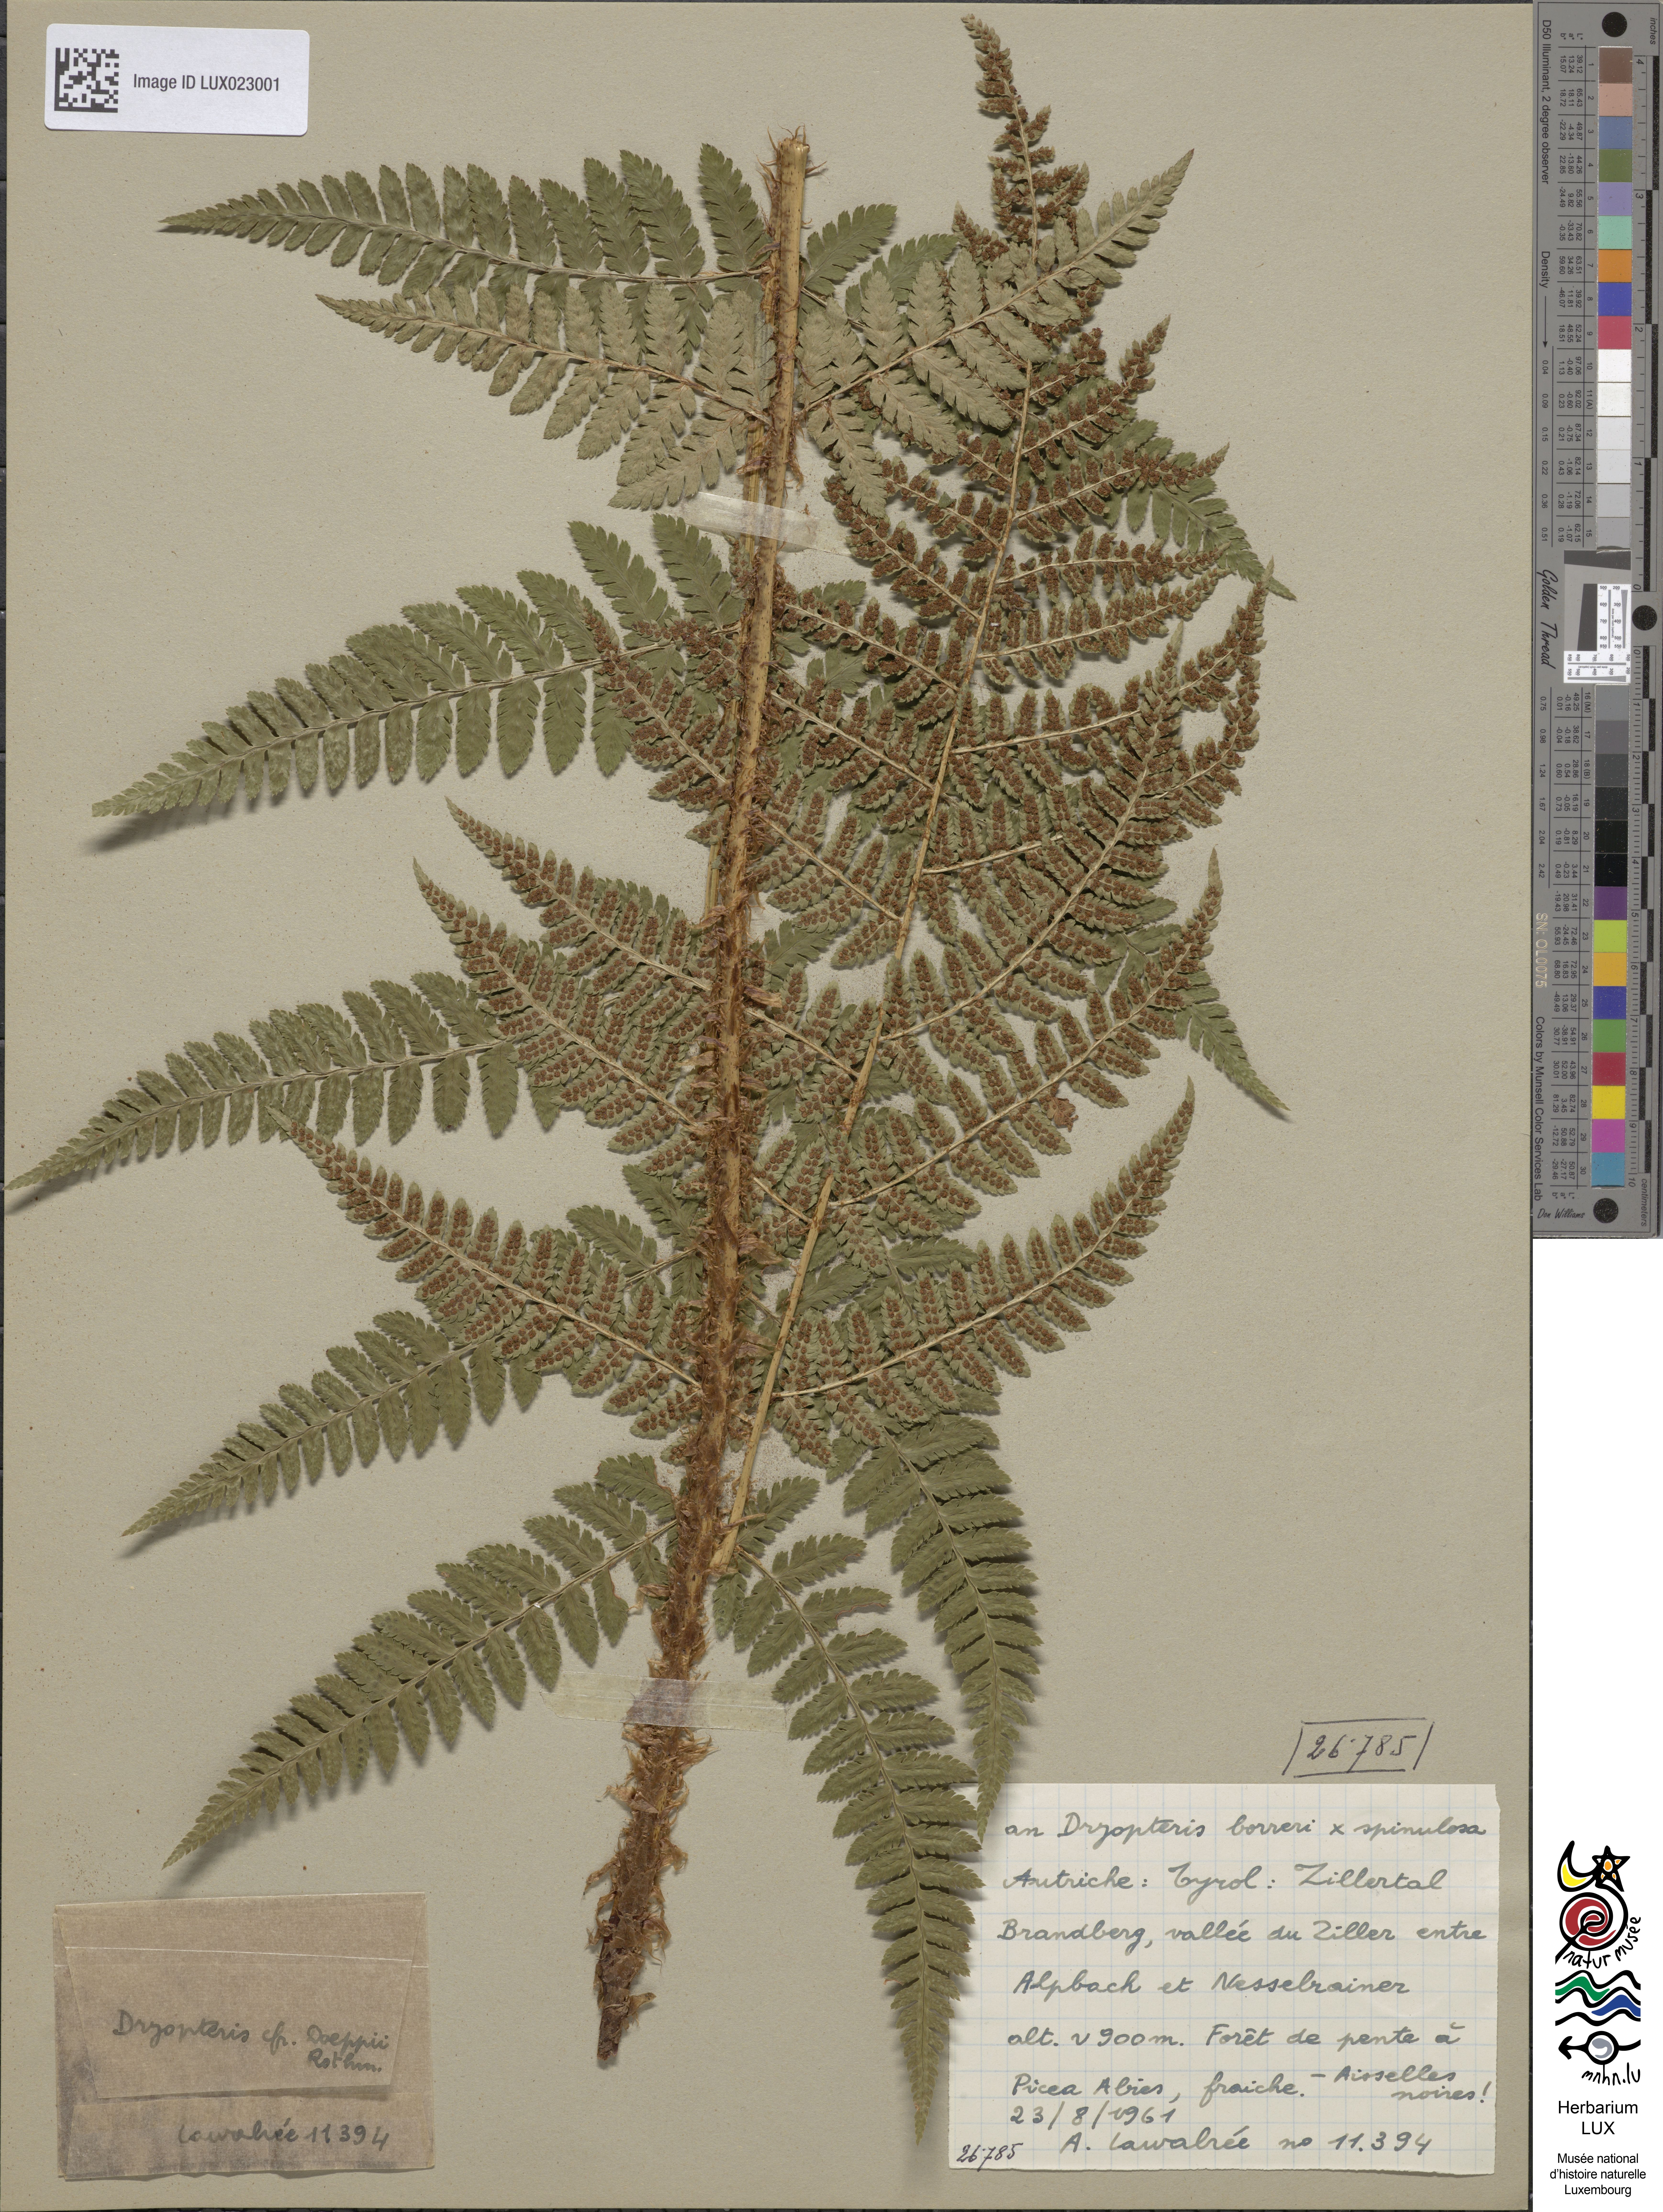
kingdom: Plantae
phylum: Tracheophyta
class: Polypodiopsida
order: Polypodiales
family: Dryopteridaceae
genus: Dryopteris
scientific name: Dryopteris doeppii
